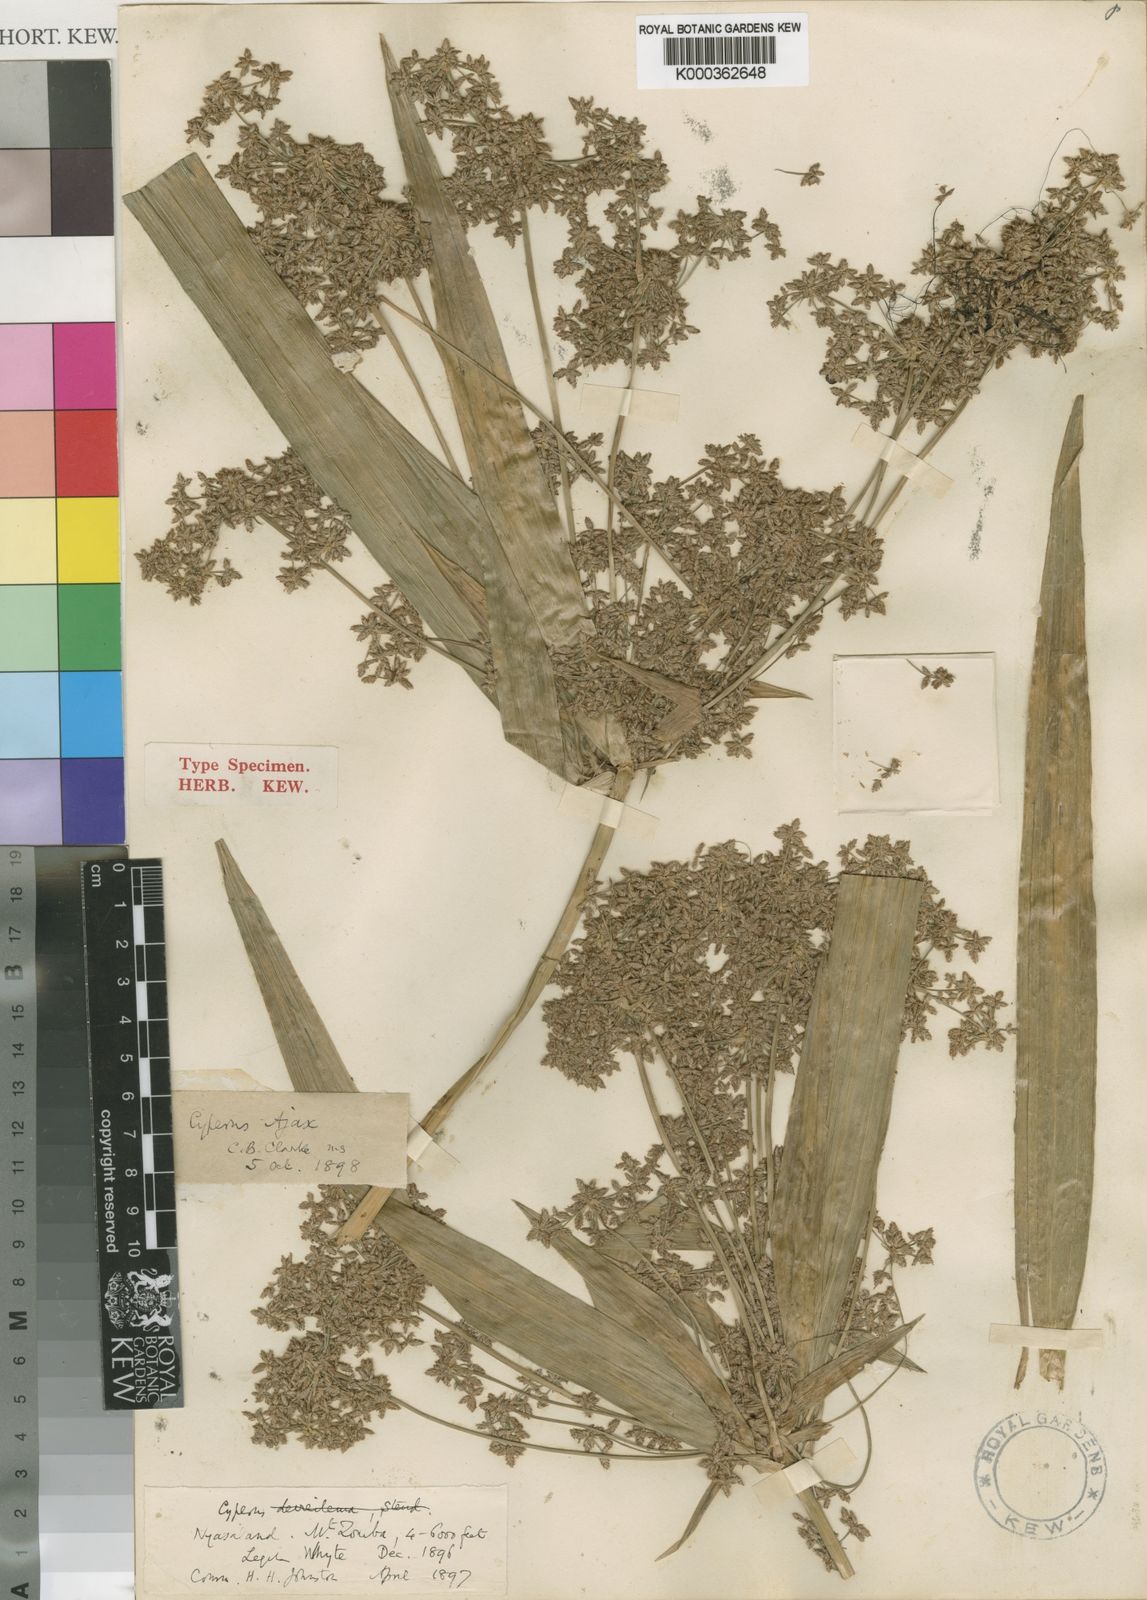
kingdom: Plantae
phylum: Tracheophyta
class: Liliopsida
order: Poales
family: Cyperaceae
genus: Cyperus
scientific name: Cyperus ajax
